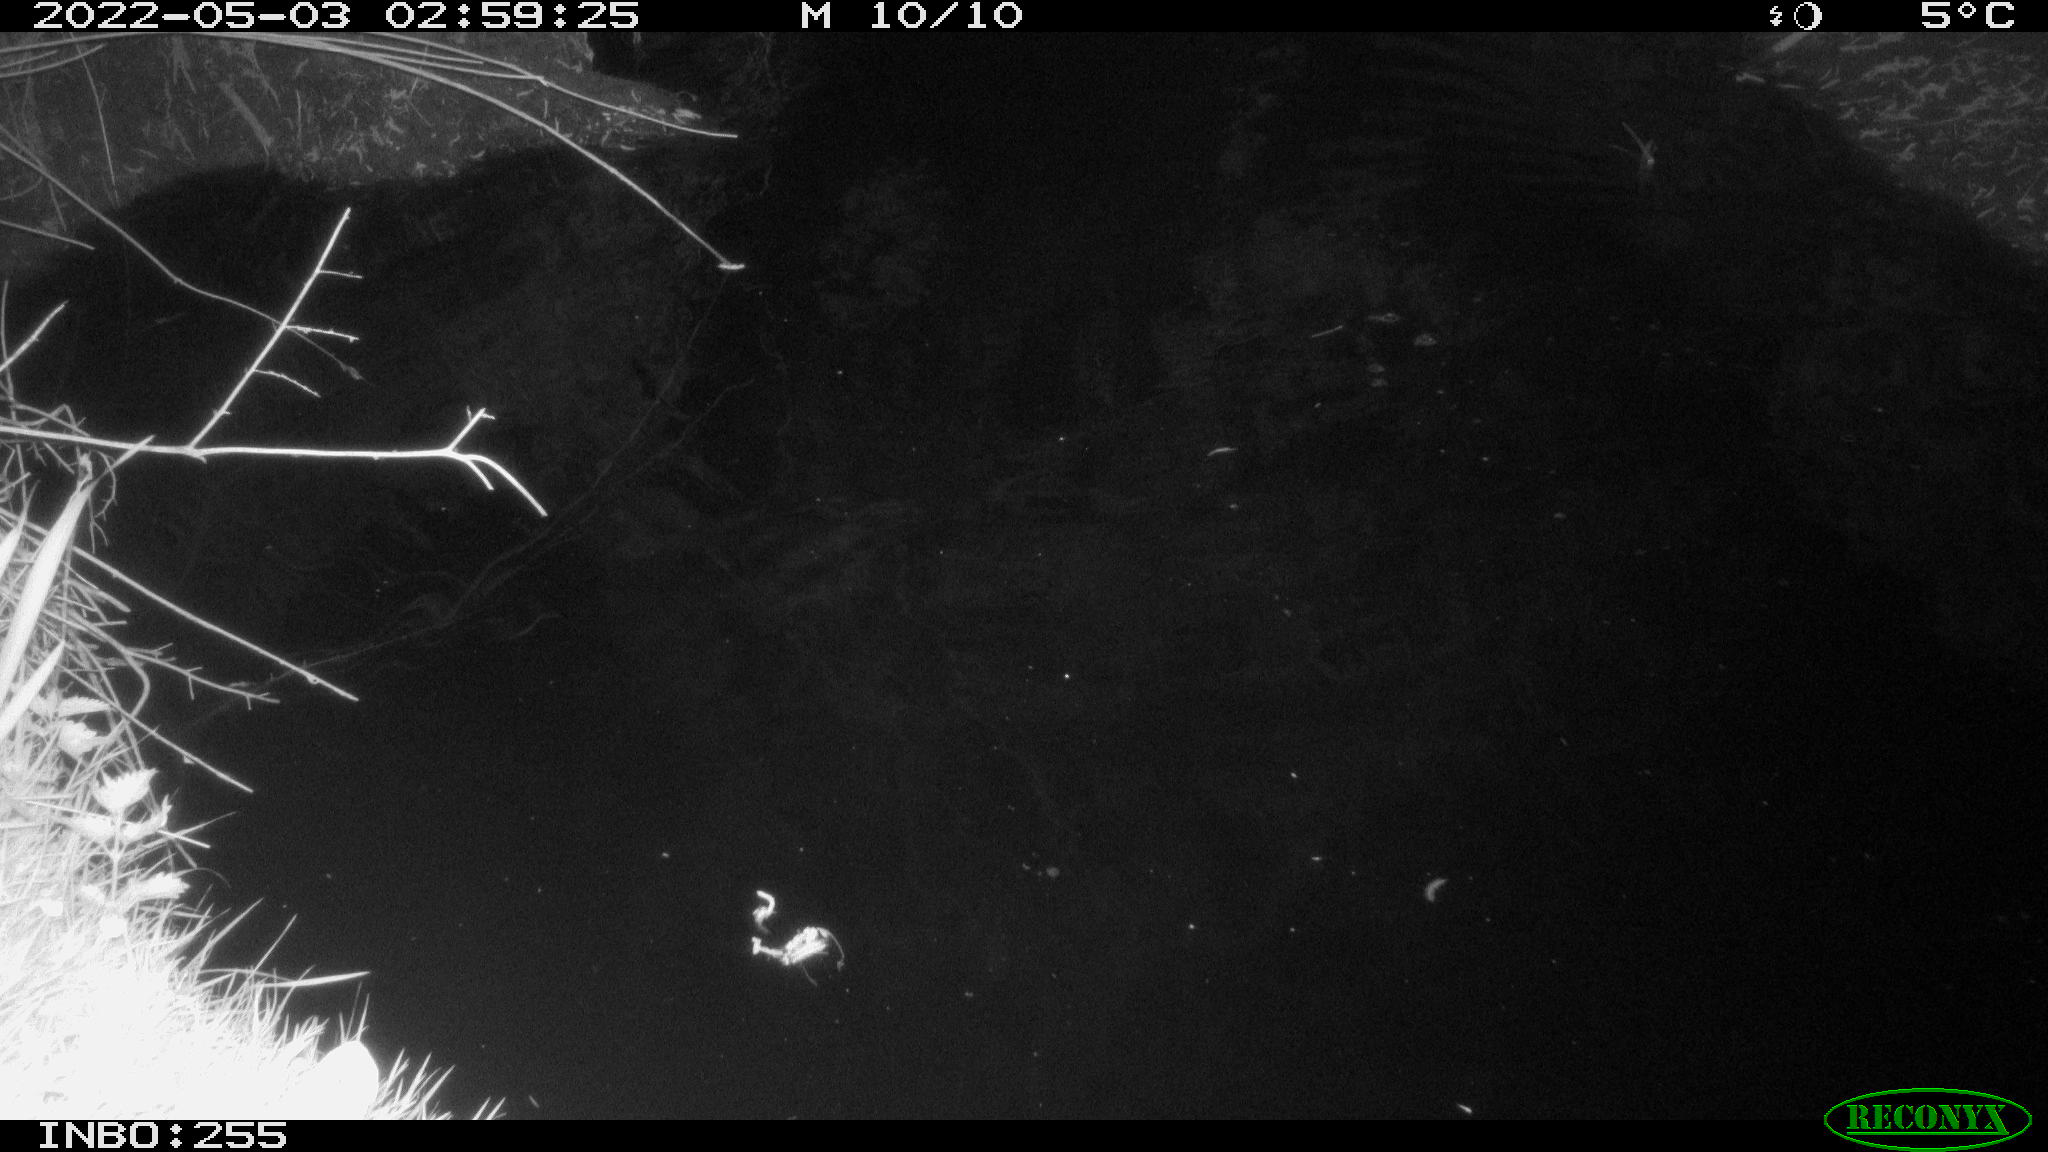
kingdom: Animalia
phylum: Chordata
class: Aves
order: Anseriformes
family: Anatidae
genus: Anas
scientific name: Anas platyrhynchos
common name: Mallard
